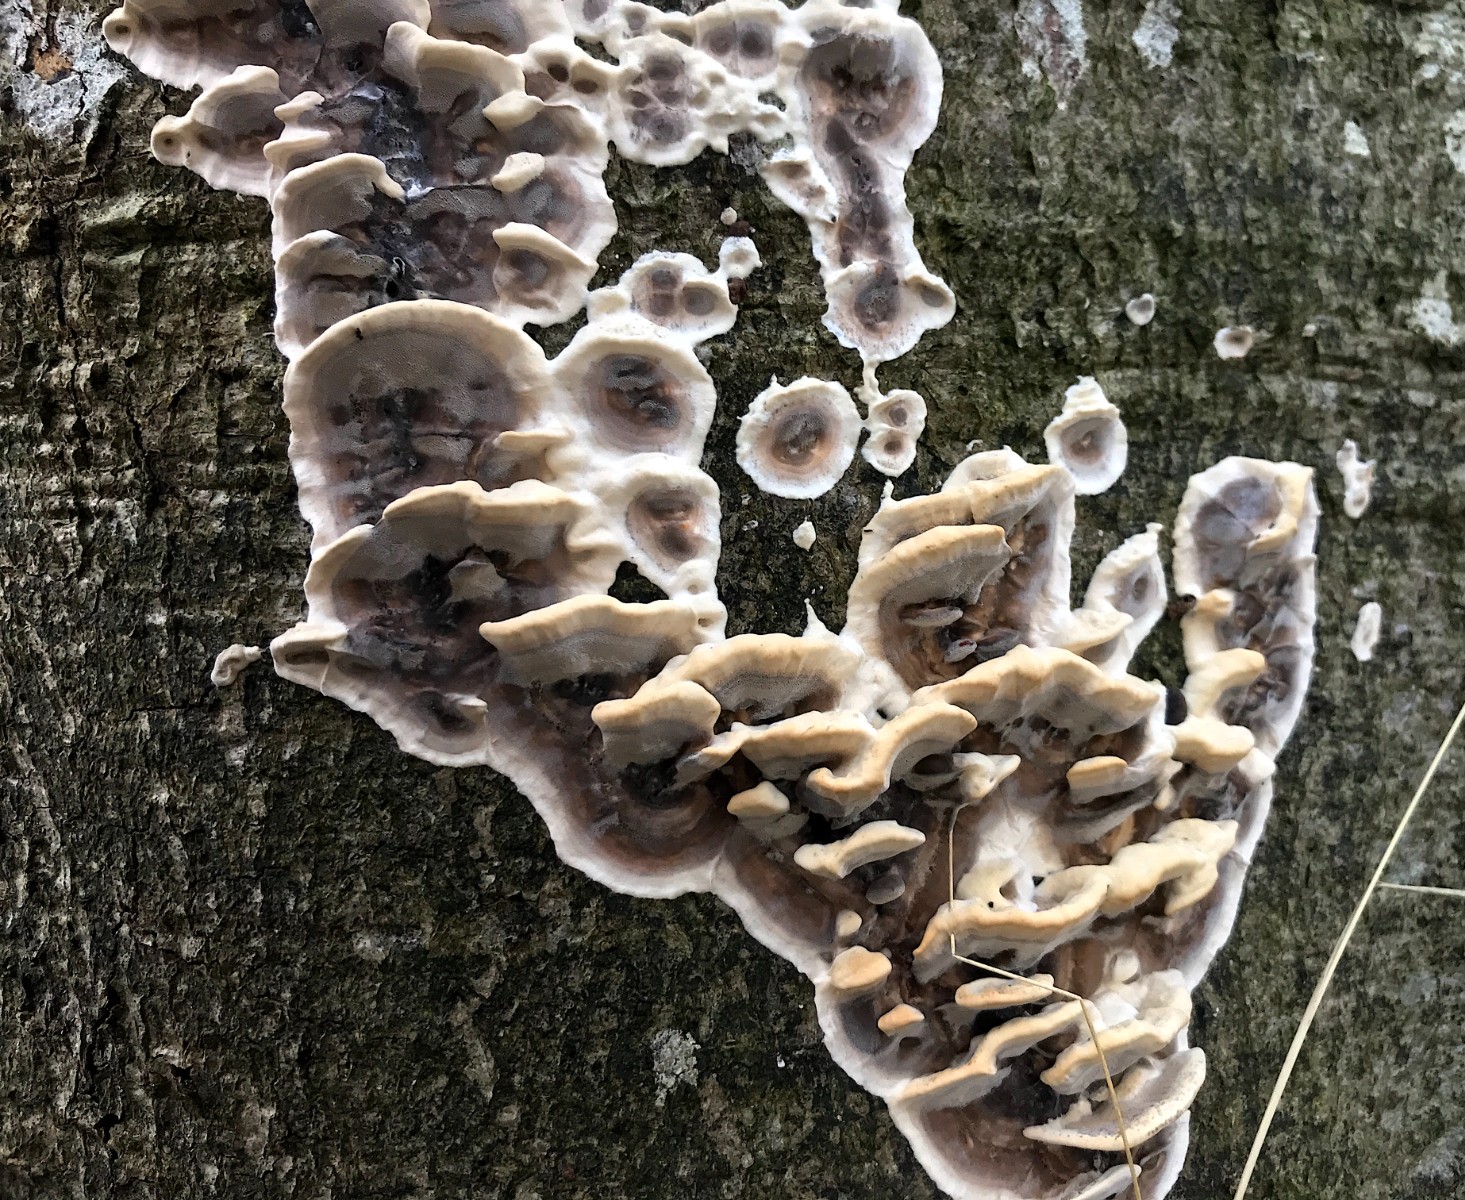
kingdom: Fungi
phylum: Basidiomycota
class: Agaricomycetes
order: Polyporales
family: Phanerochaetaceae
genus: Bjerkandera
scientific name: Bjerkandera adusta
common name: sveden sodporesvamp
